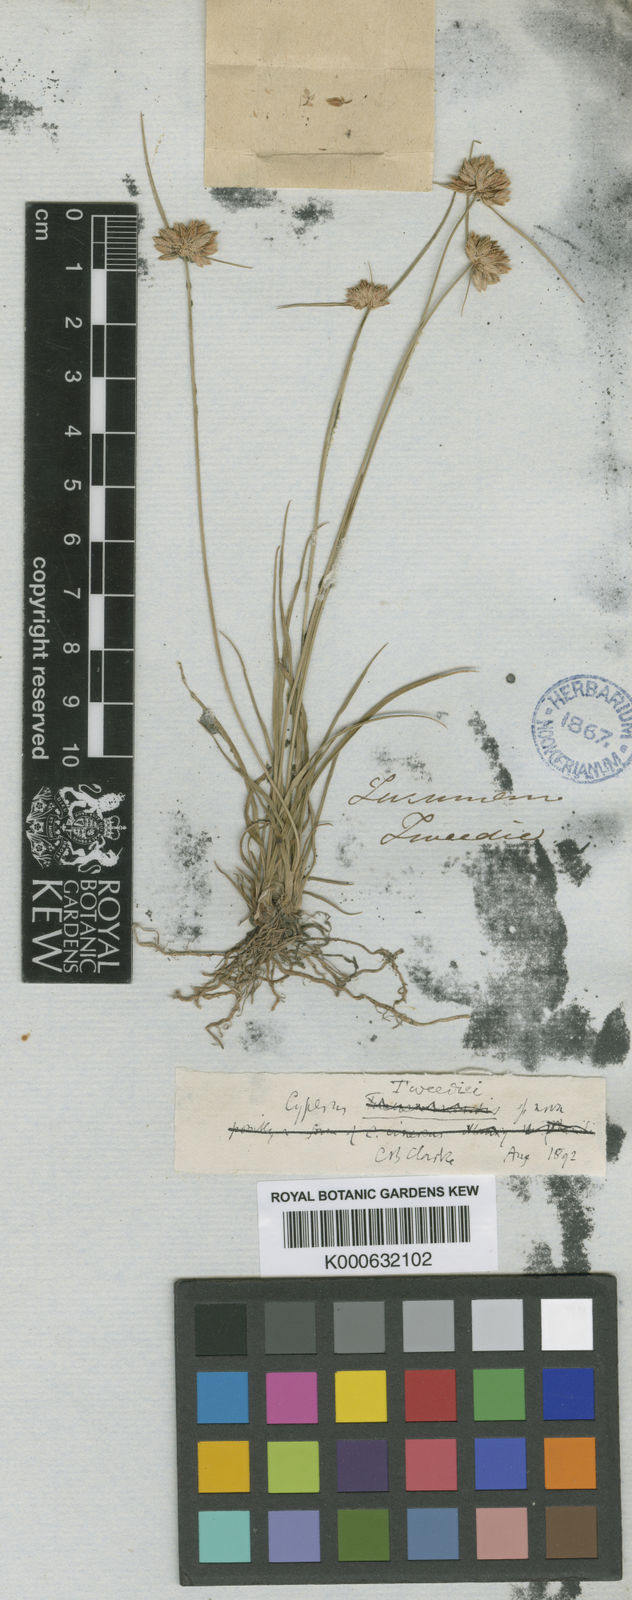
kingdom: Plantae
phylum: Tracheophyta
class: Liliopsida
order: Poales
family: Cyperaceae
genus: Cyperus
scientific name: Cyperus tweediei
